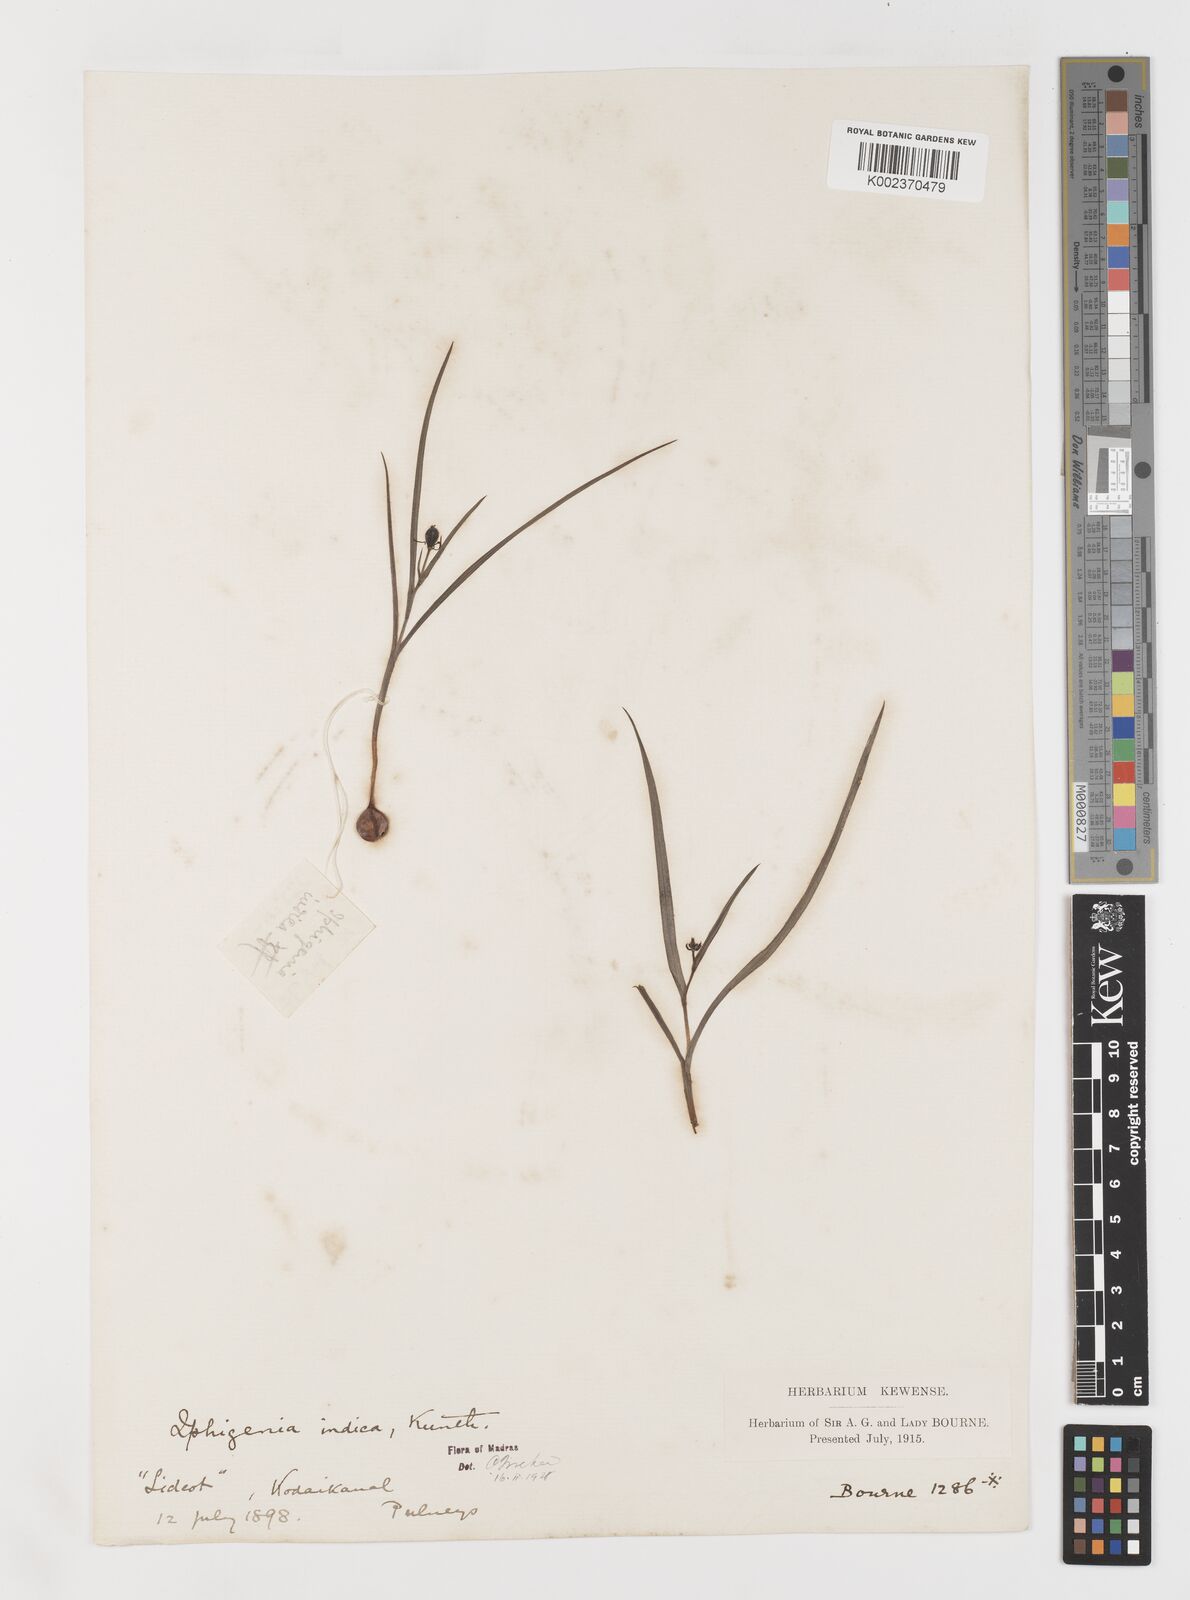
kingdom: Plantae
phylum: Tracheophyta
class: Liliopsida
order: Liliales
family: Colchicaceae
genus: Iphigenia
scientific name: Iphigenia indica
